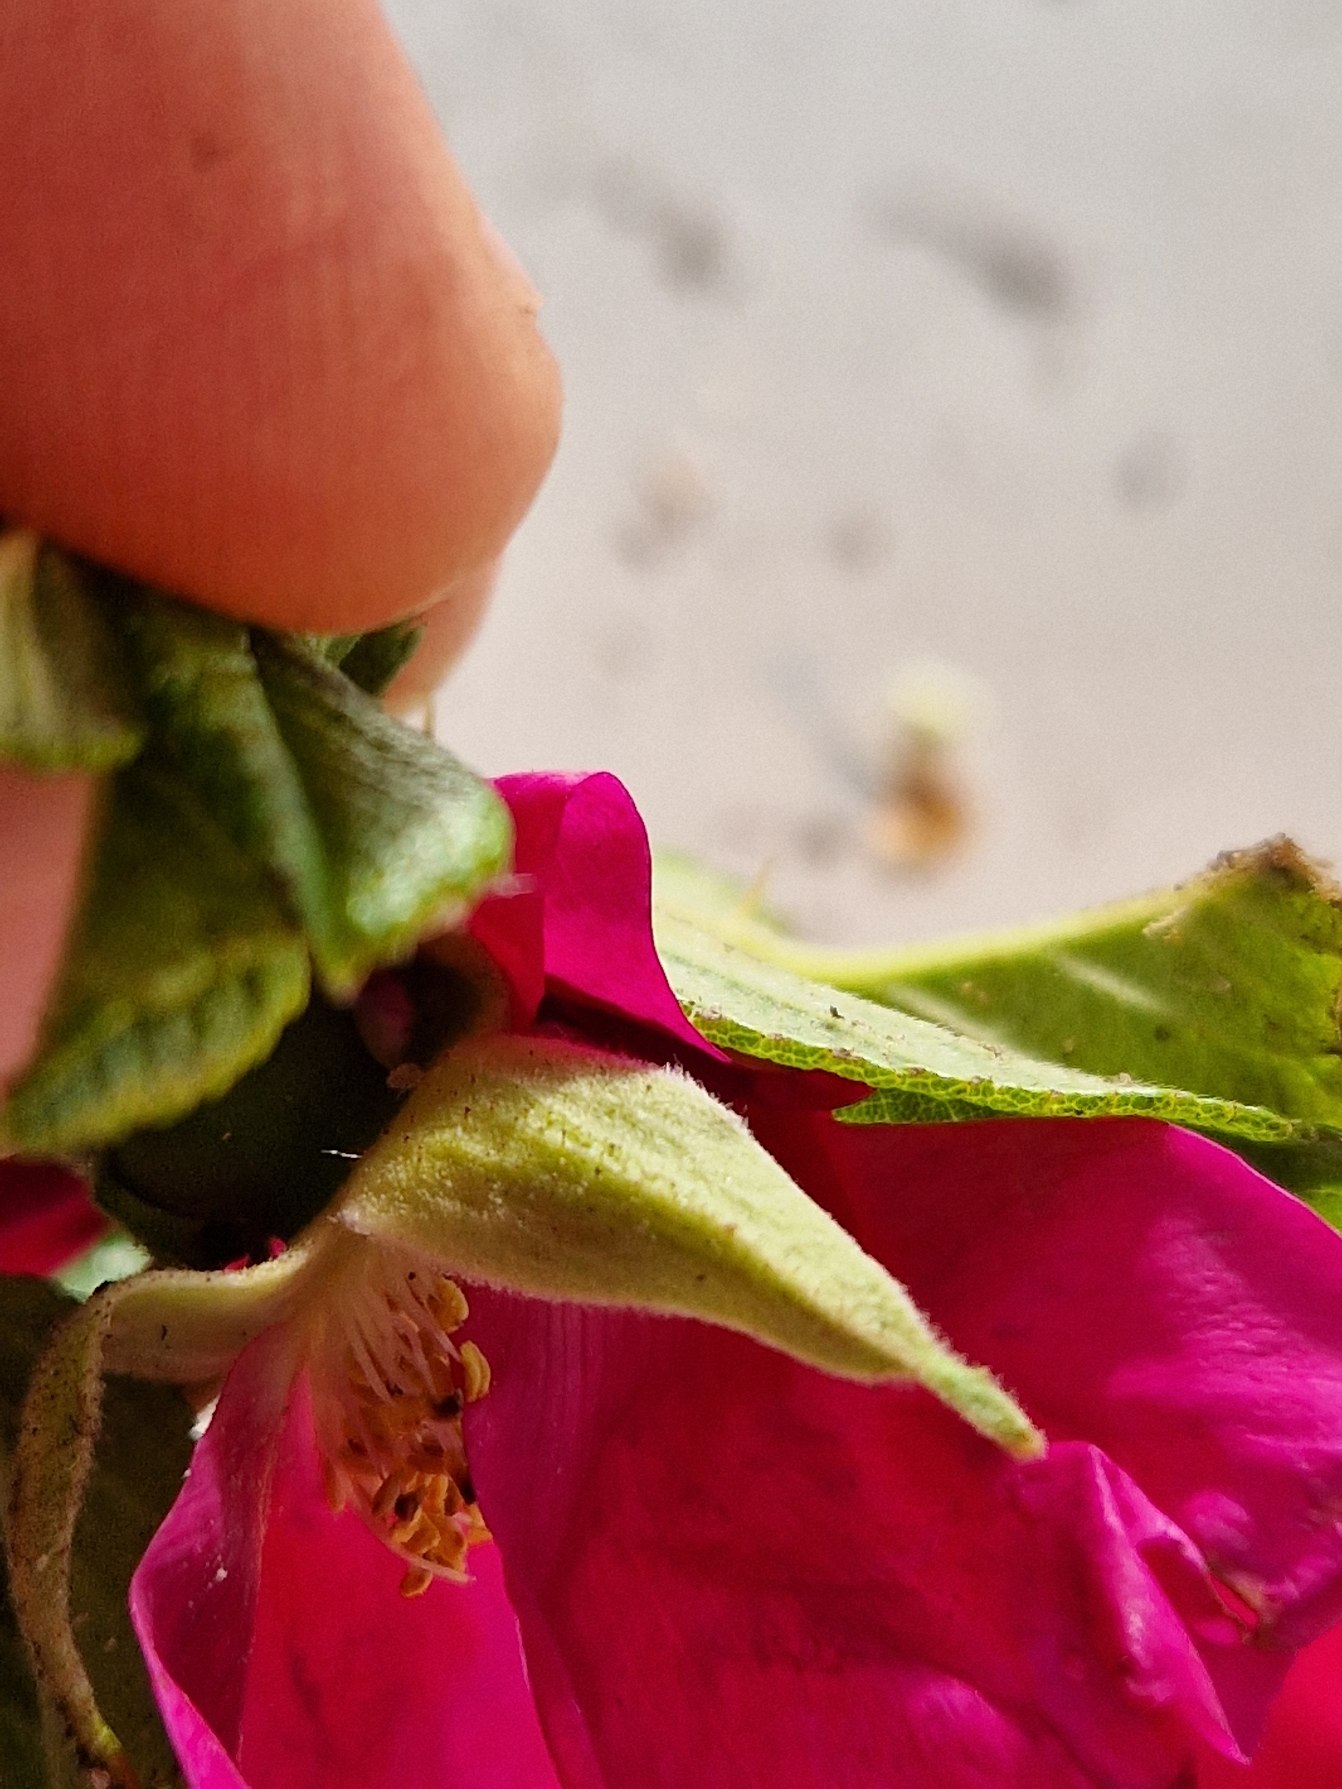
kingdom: Plantae
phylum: Tracheophyta
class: Magnoliopsida
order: Rosales
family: Rosaceae
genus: Rosa
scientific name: Rosa rugosa
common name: Rynket rose
